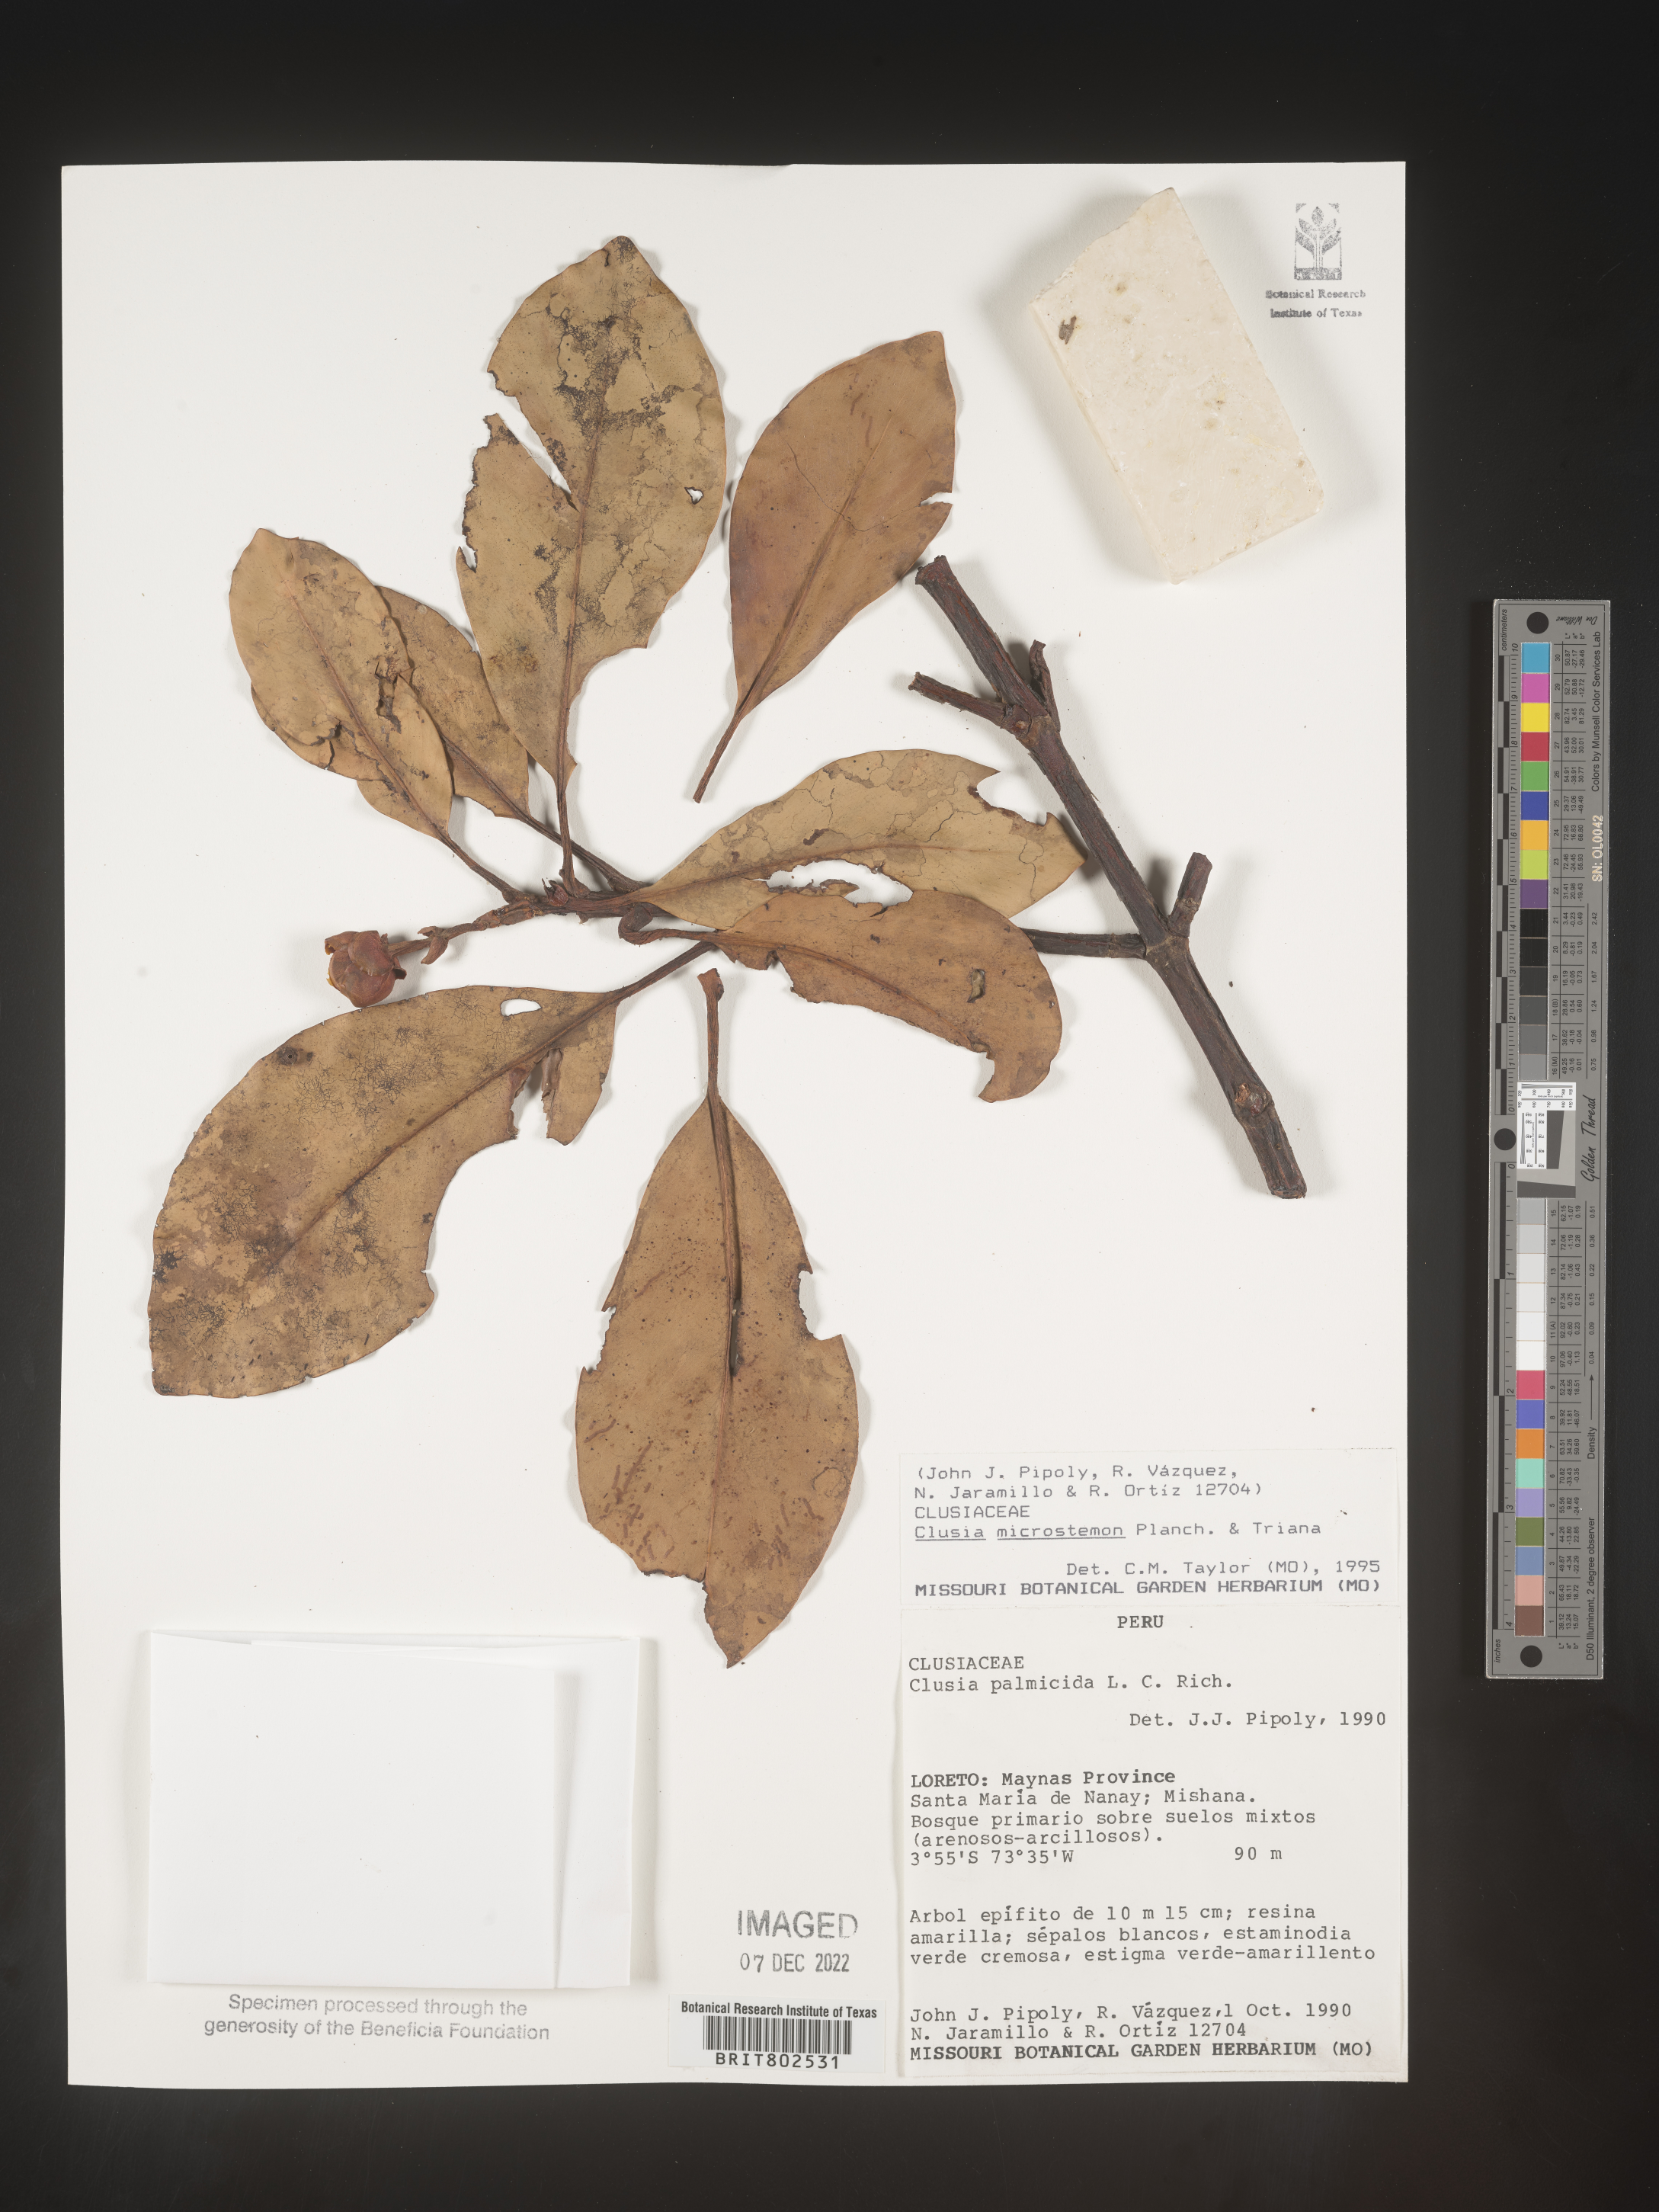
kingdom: Plantae
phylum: Tracheophyta
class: Magnoliopsida
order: Malpighiales
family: Clusiaceae
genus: Clusia
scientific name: Clusia microstemon
